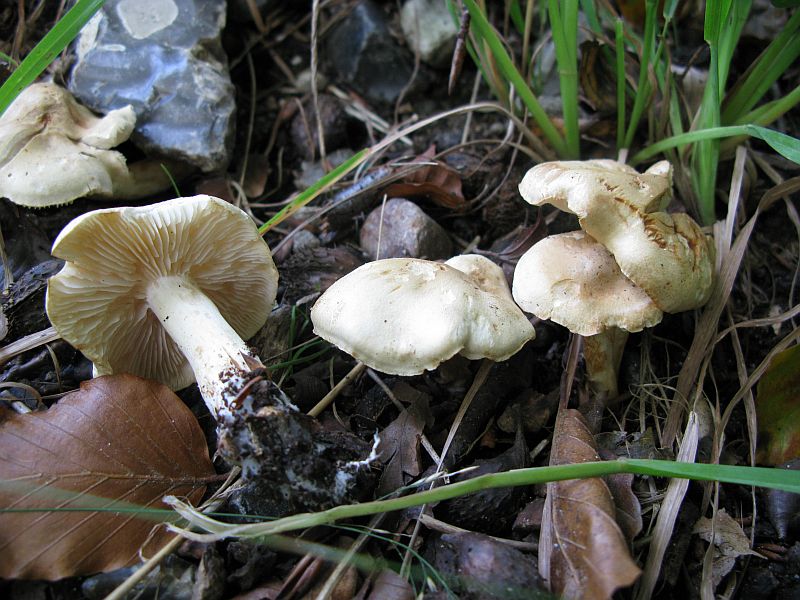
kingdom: Fungi
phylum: Basidiomycota
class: Agaricomycetes
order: Agaricales
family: Tricholomataceae
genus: Tricholoma
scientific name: Tricholoma lascivum
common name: stinkende ridderhat
